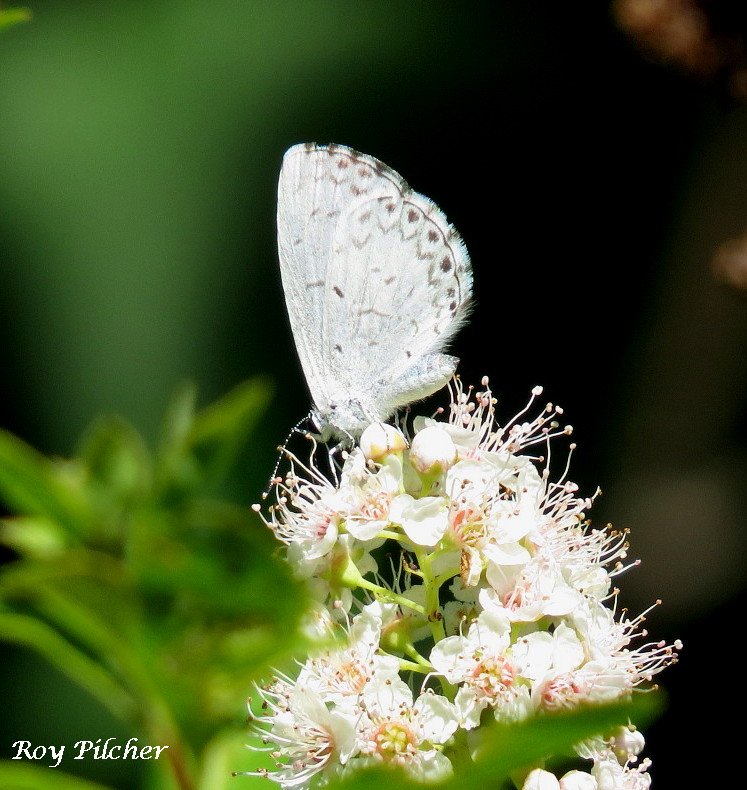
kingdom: Animalia
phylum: Arthropoda
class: Insecta
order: Lepidoptera
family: Lycaenidae
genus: Cyaniris
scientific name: Cyaniris neglecta
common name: Summer Azure
